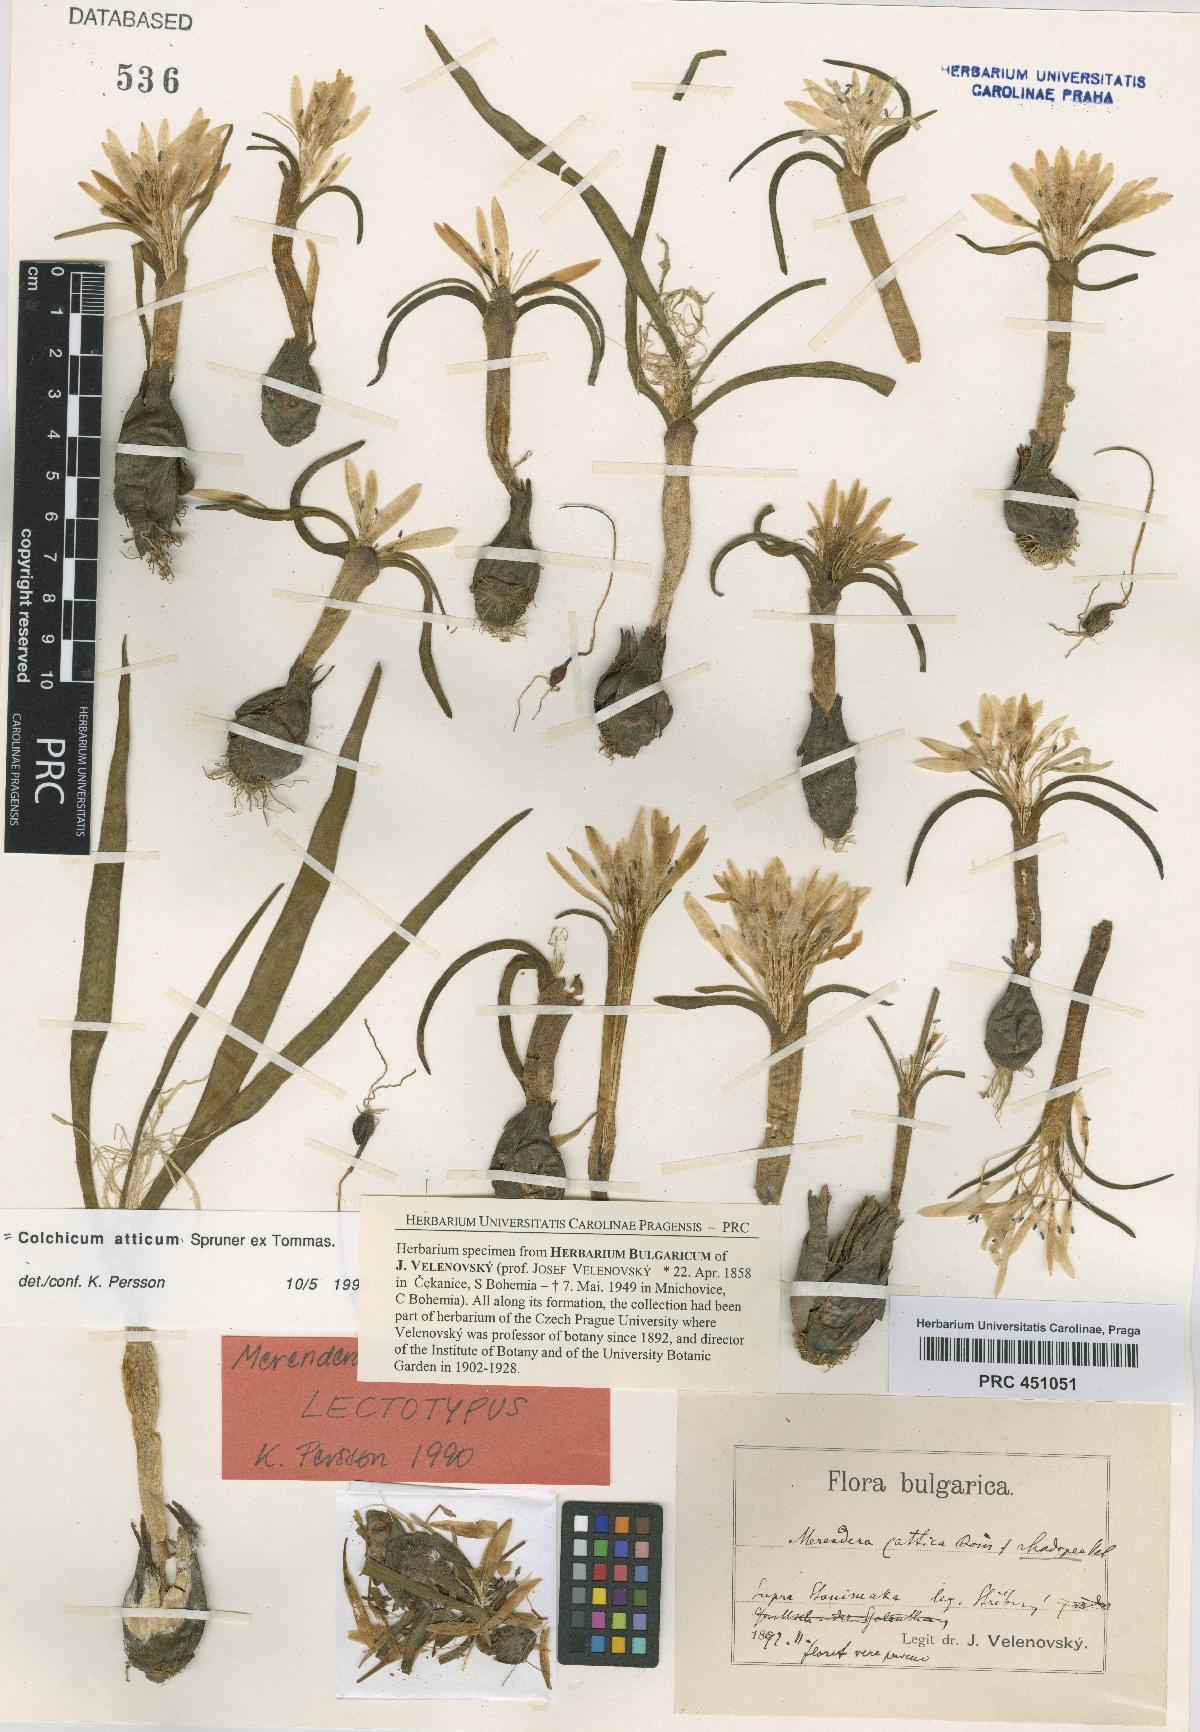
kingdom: Plantae
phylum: Tracheophyta
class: Liliopsida
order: Liliales
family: Colchicaceae
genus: Colchicum
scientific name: Colchicum atticum
